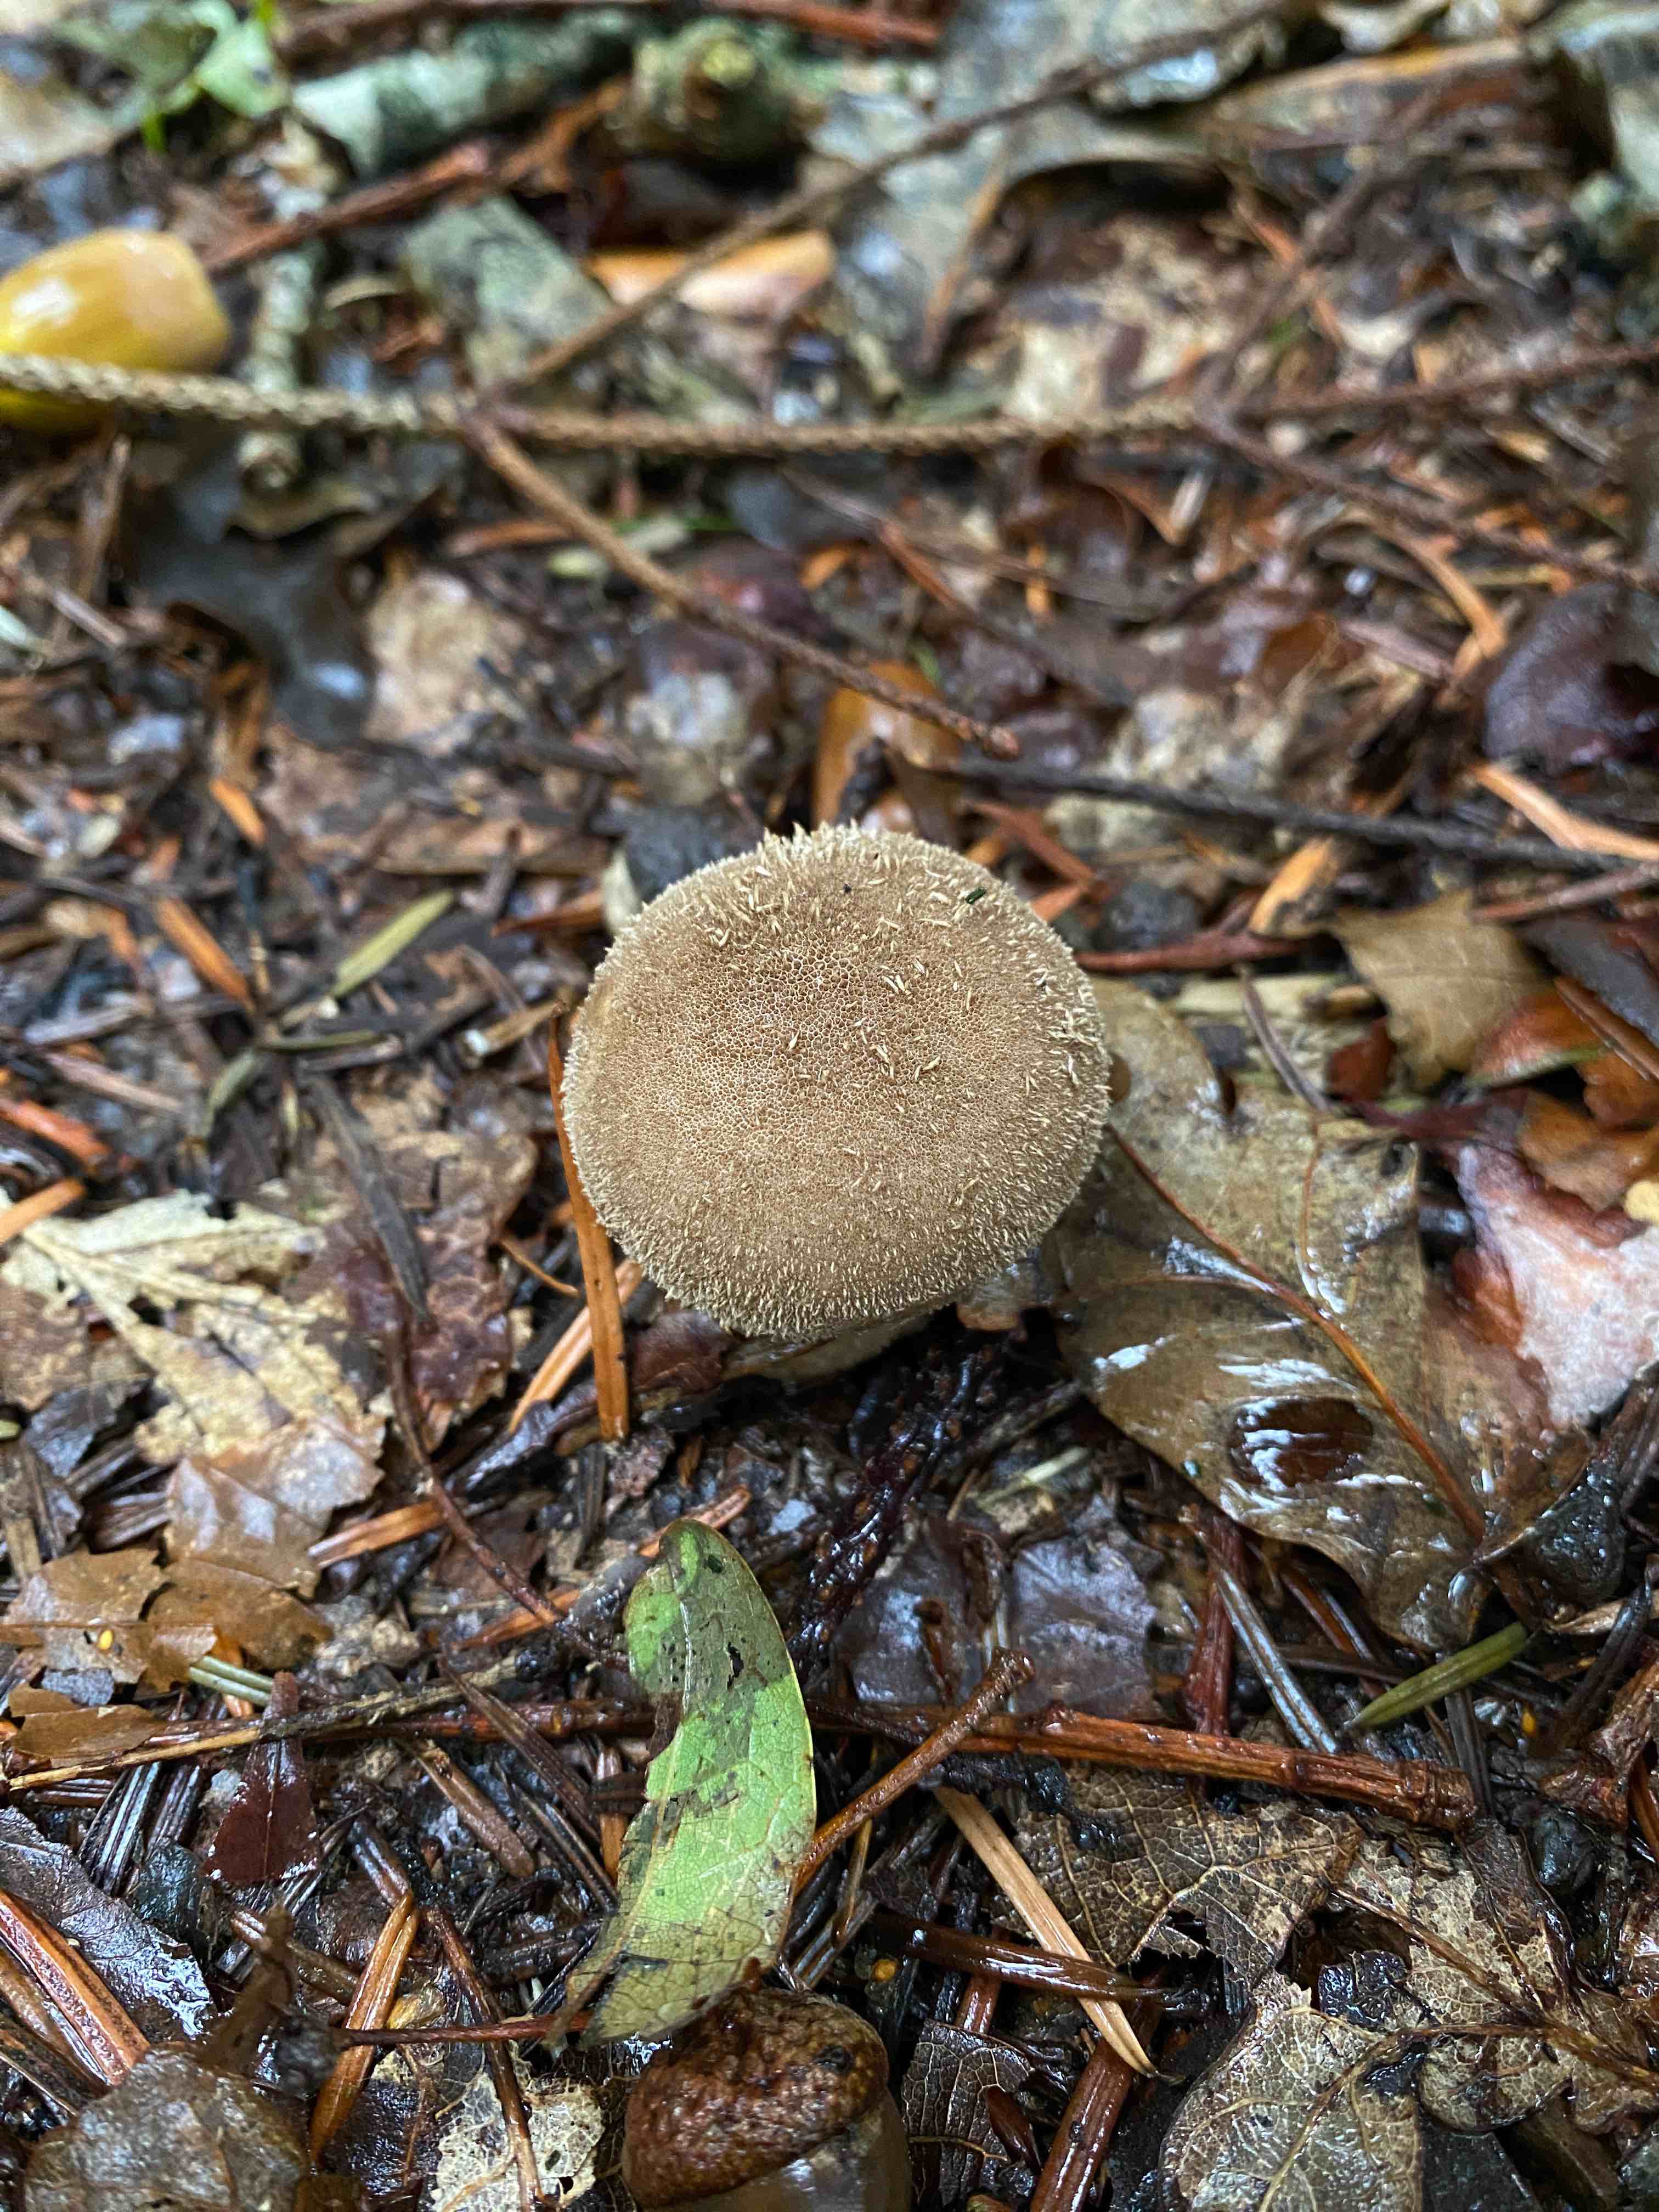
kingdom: Fungi
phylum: Basidiomycota
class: Agaricomycetes
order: Agaricales
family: Agaricaceae
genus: Lycoperdon
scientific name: Lycoperdon
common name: støvbold
